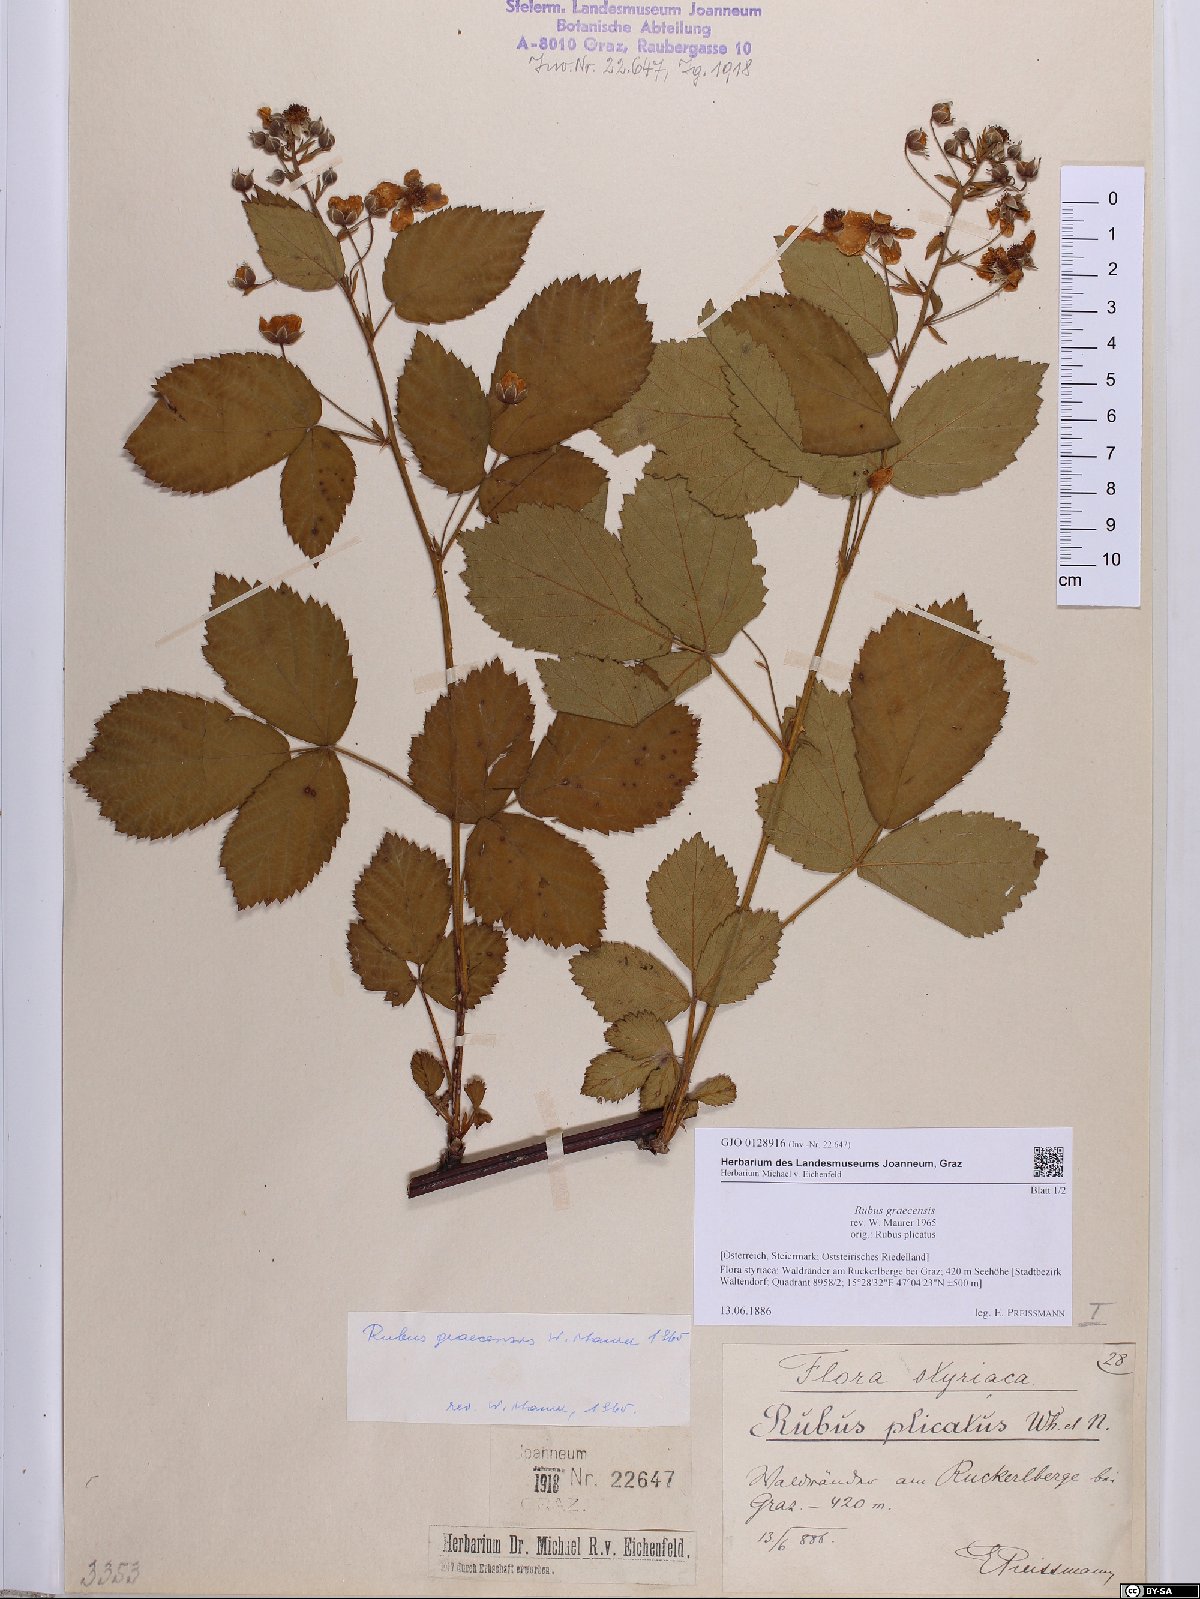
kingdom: Plantae
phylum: Tracheophyta
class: Magnoliopsida
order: Rosales
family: Rosaceae
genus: Rubus
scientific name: Rubus graecensis
